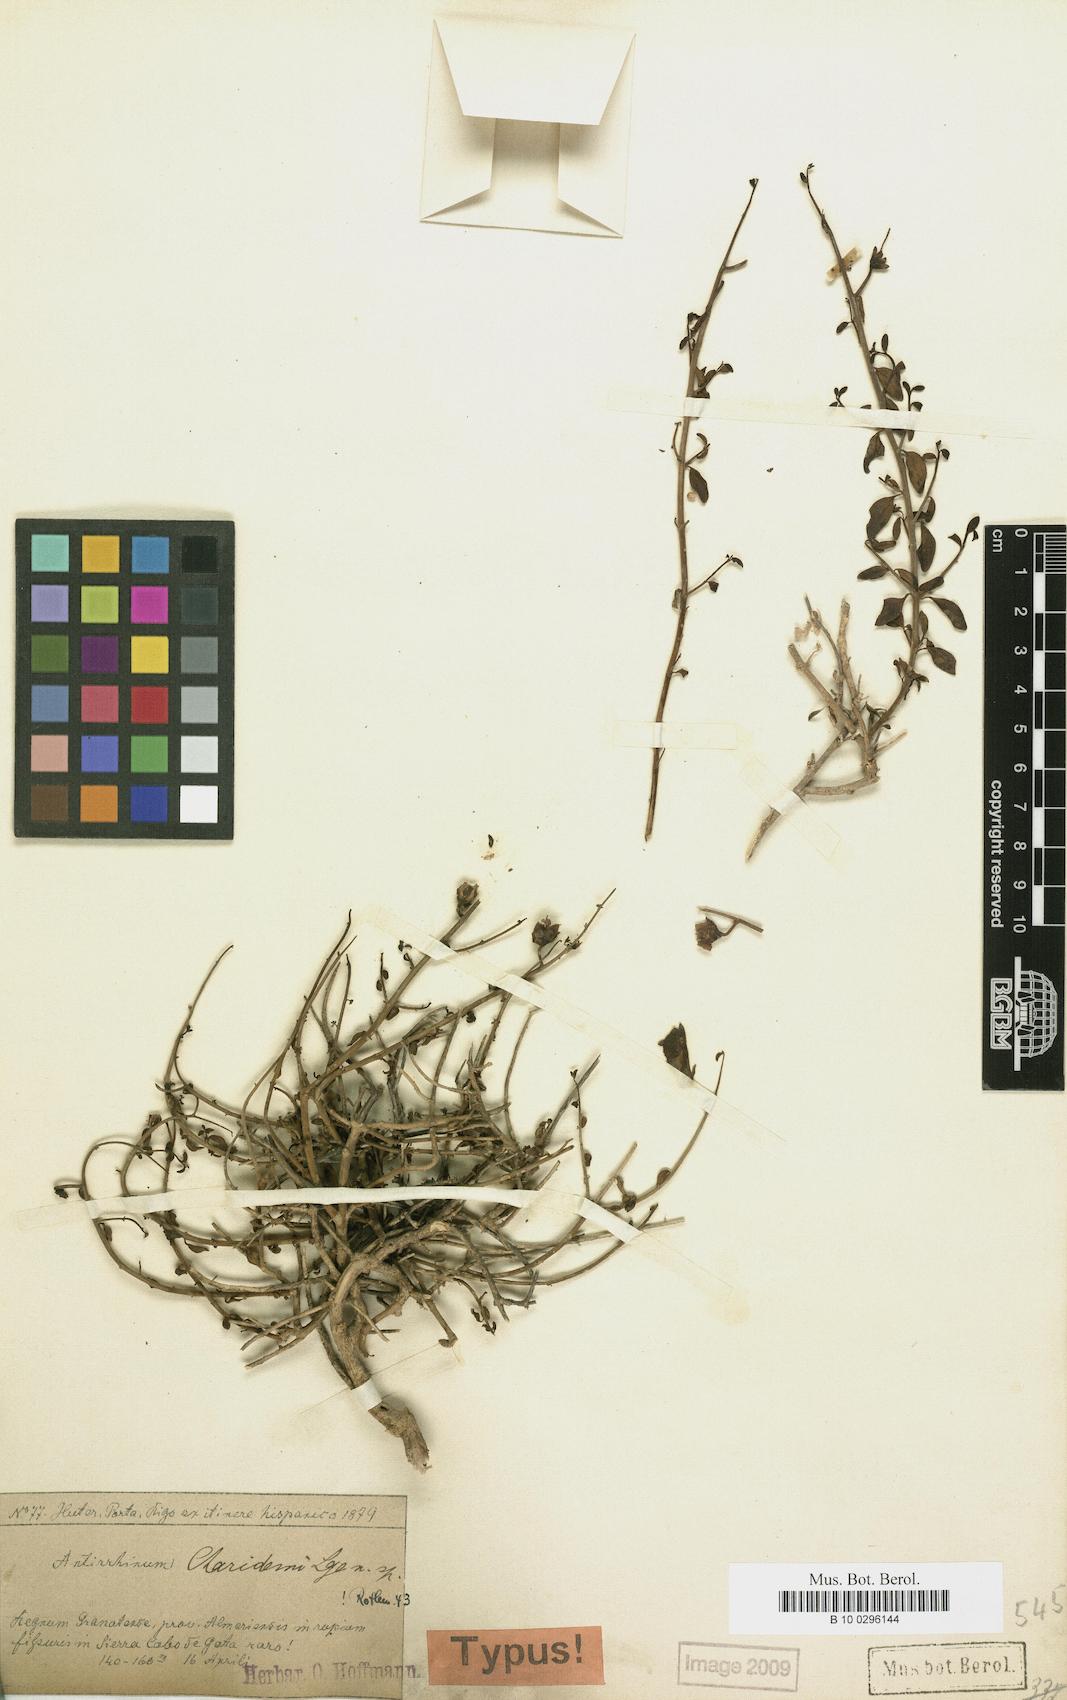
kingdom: Plantae
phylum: Tracheophyta
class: Magnoliopsida
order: Lamiales
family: Plantaginaceae
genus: Antirrhinum
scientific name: Antirrhinum charidemi
